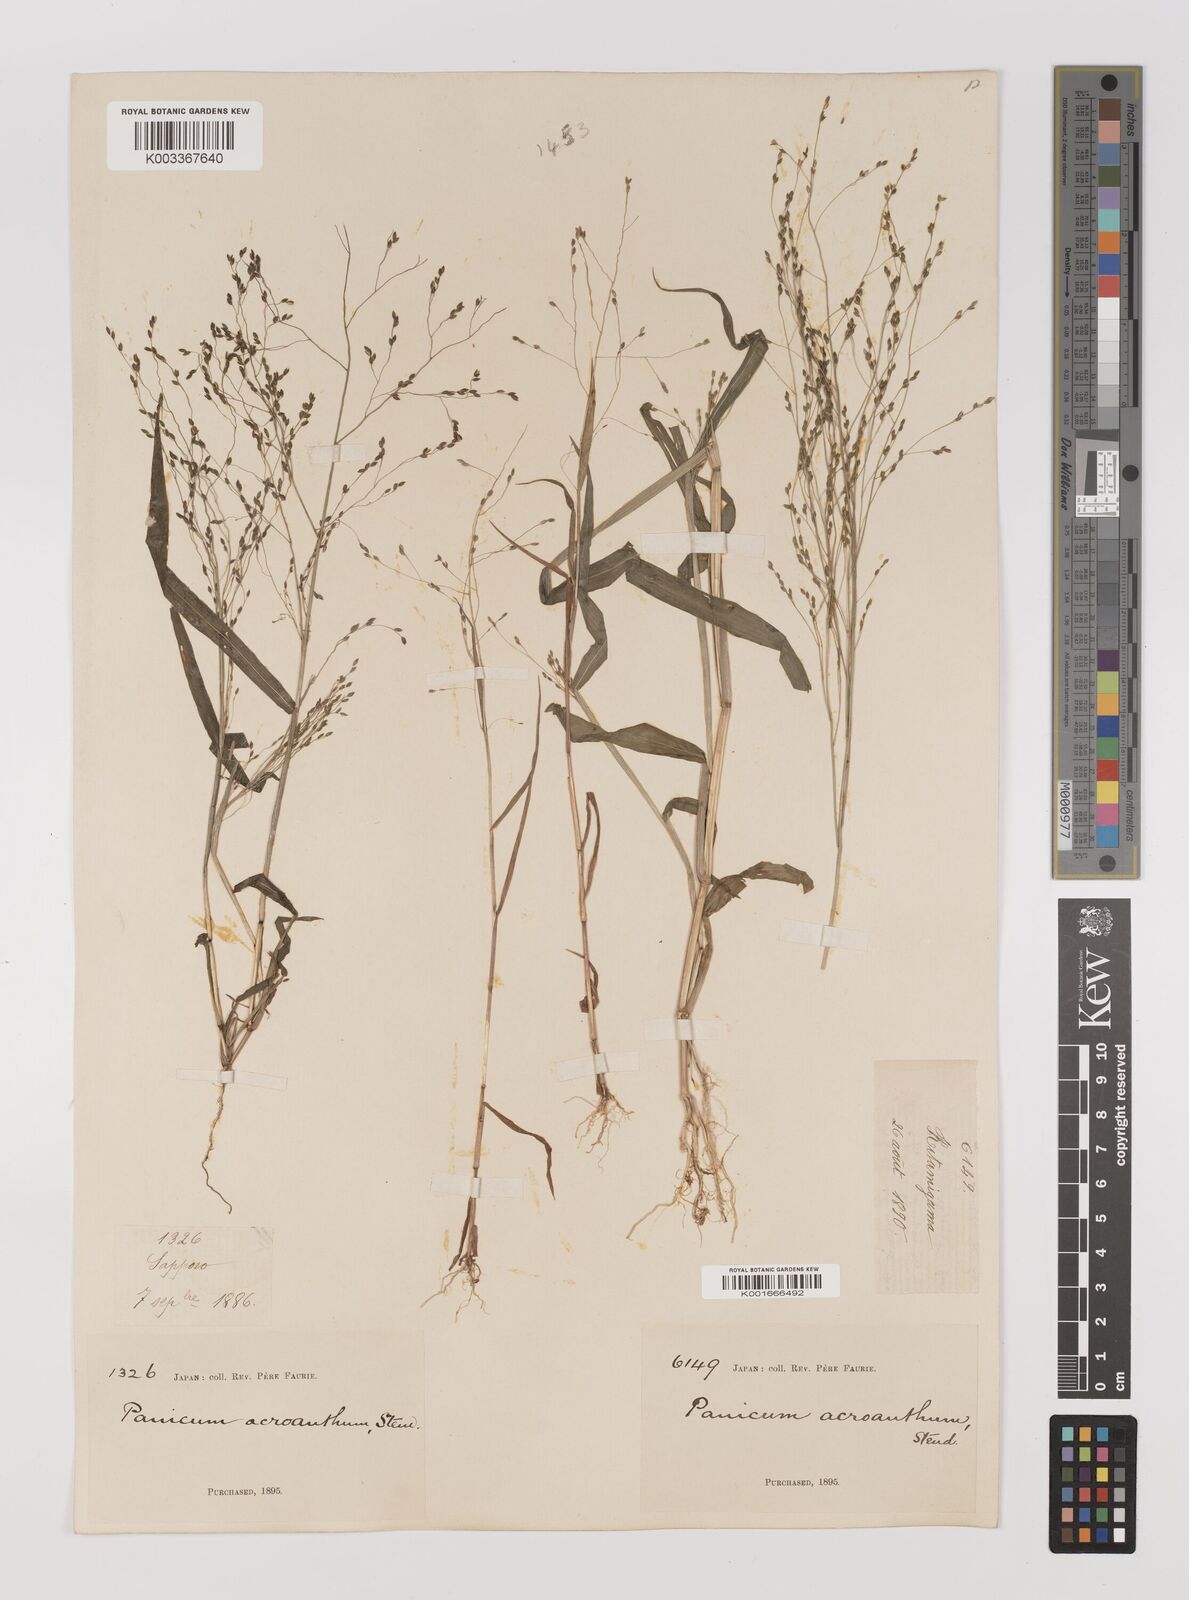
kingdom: Plantae
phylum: Tracheophyta
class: Liliopsida
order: Poales
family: Poaceae
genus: Panicum
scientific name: Panicum bisulcatum
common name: Japanese panicgrass
